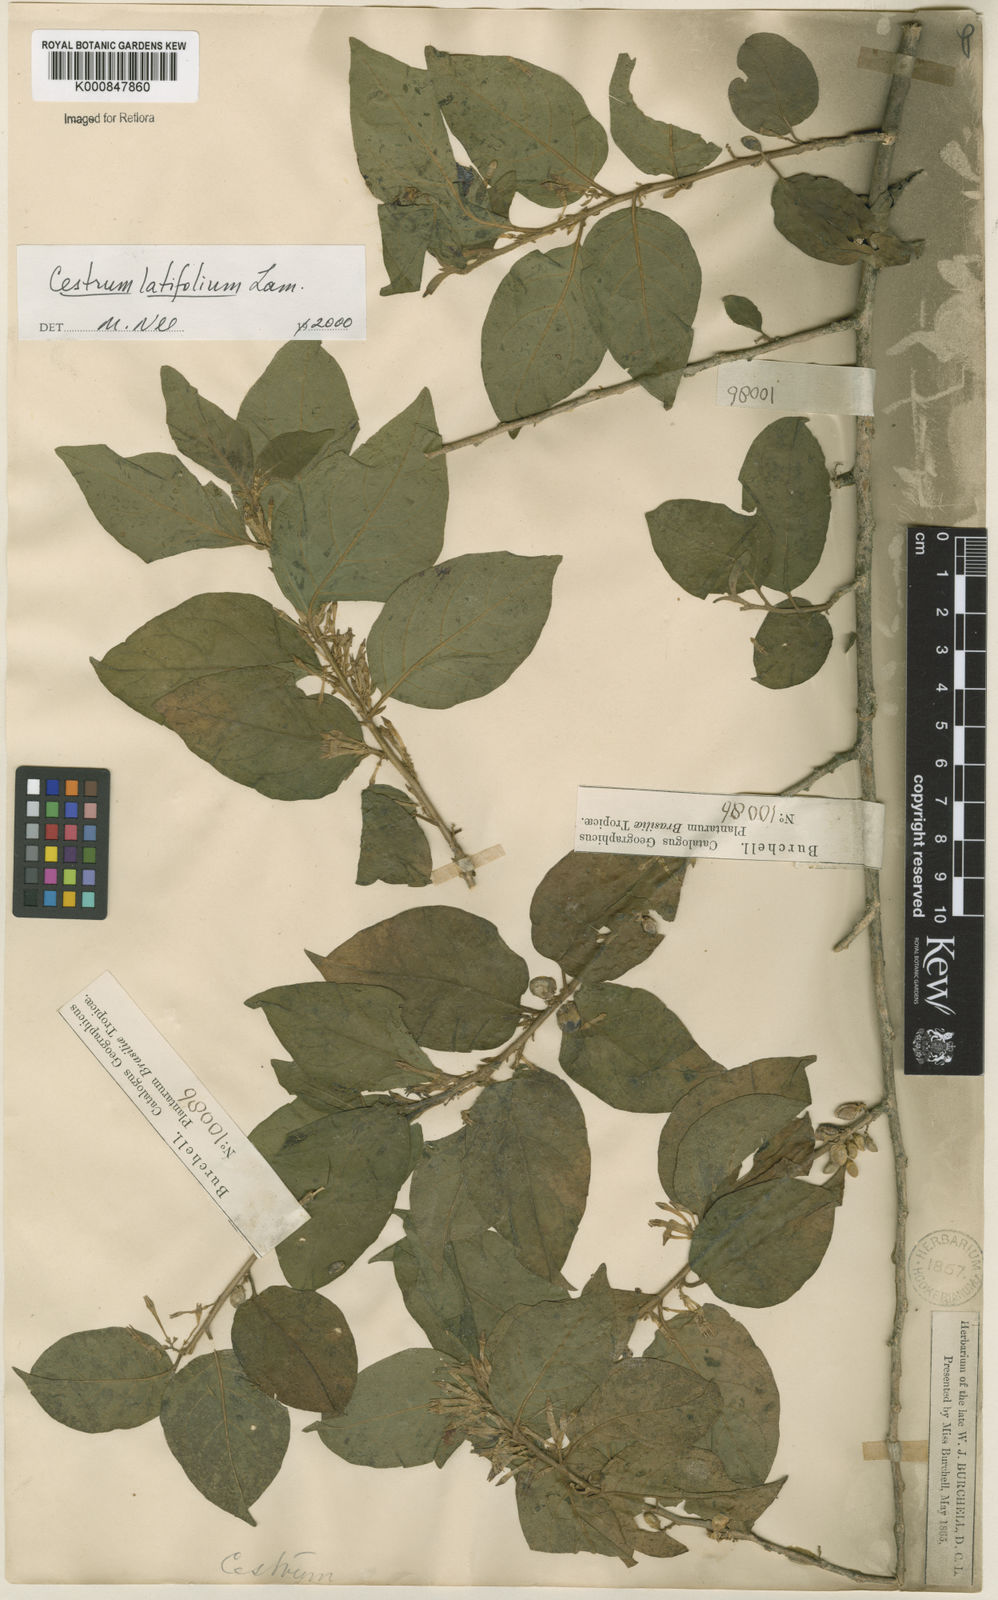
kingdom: Plantae
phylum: Tracheophyta
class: Magnoliopsida
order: Solanales
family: Solanaceae
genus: Cestrum
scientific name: Cestrum latifolium
